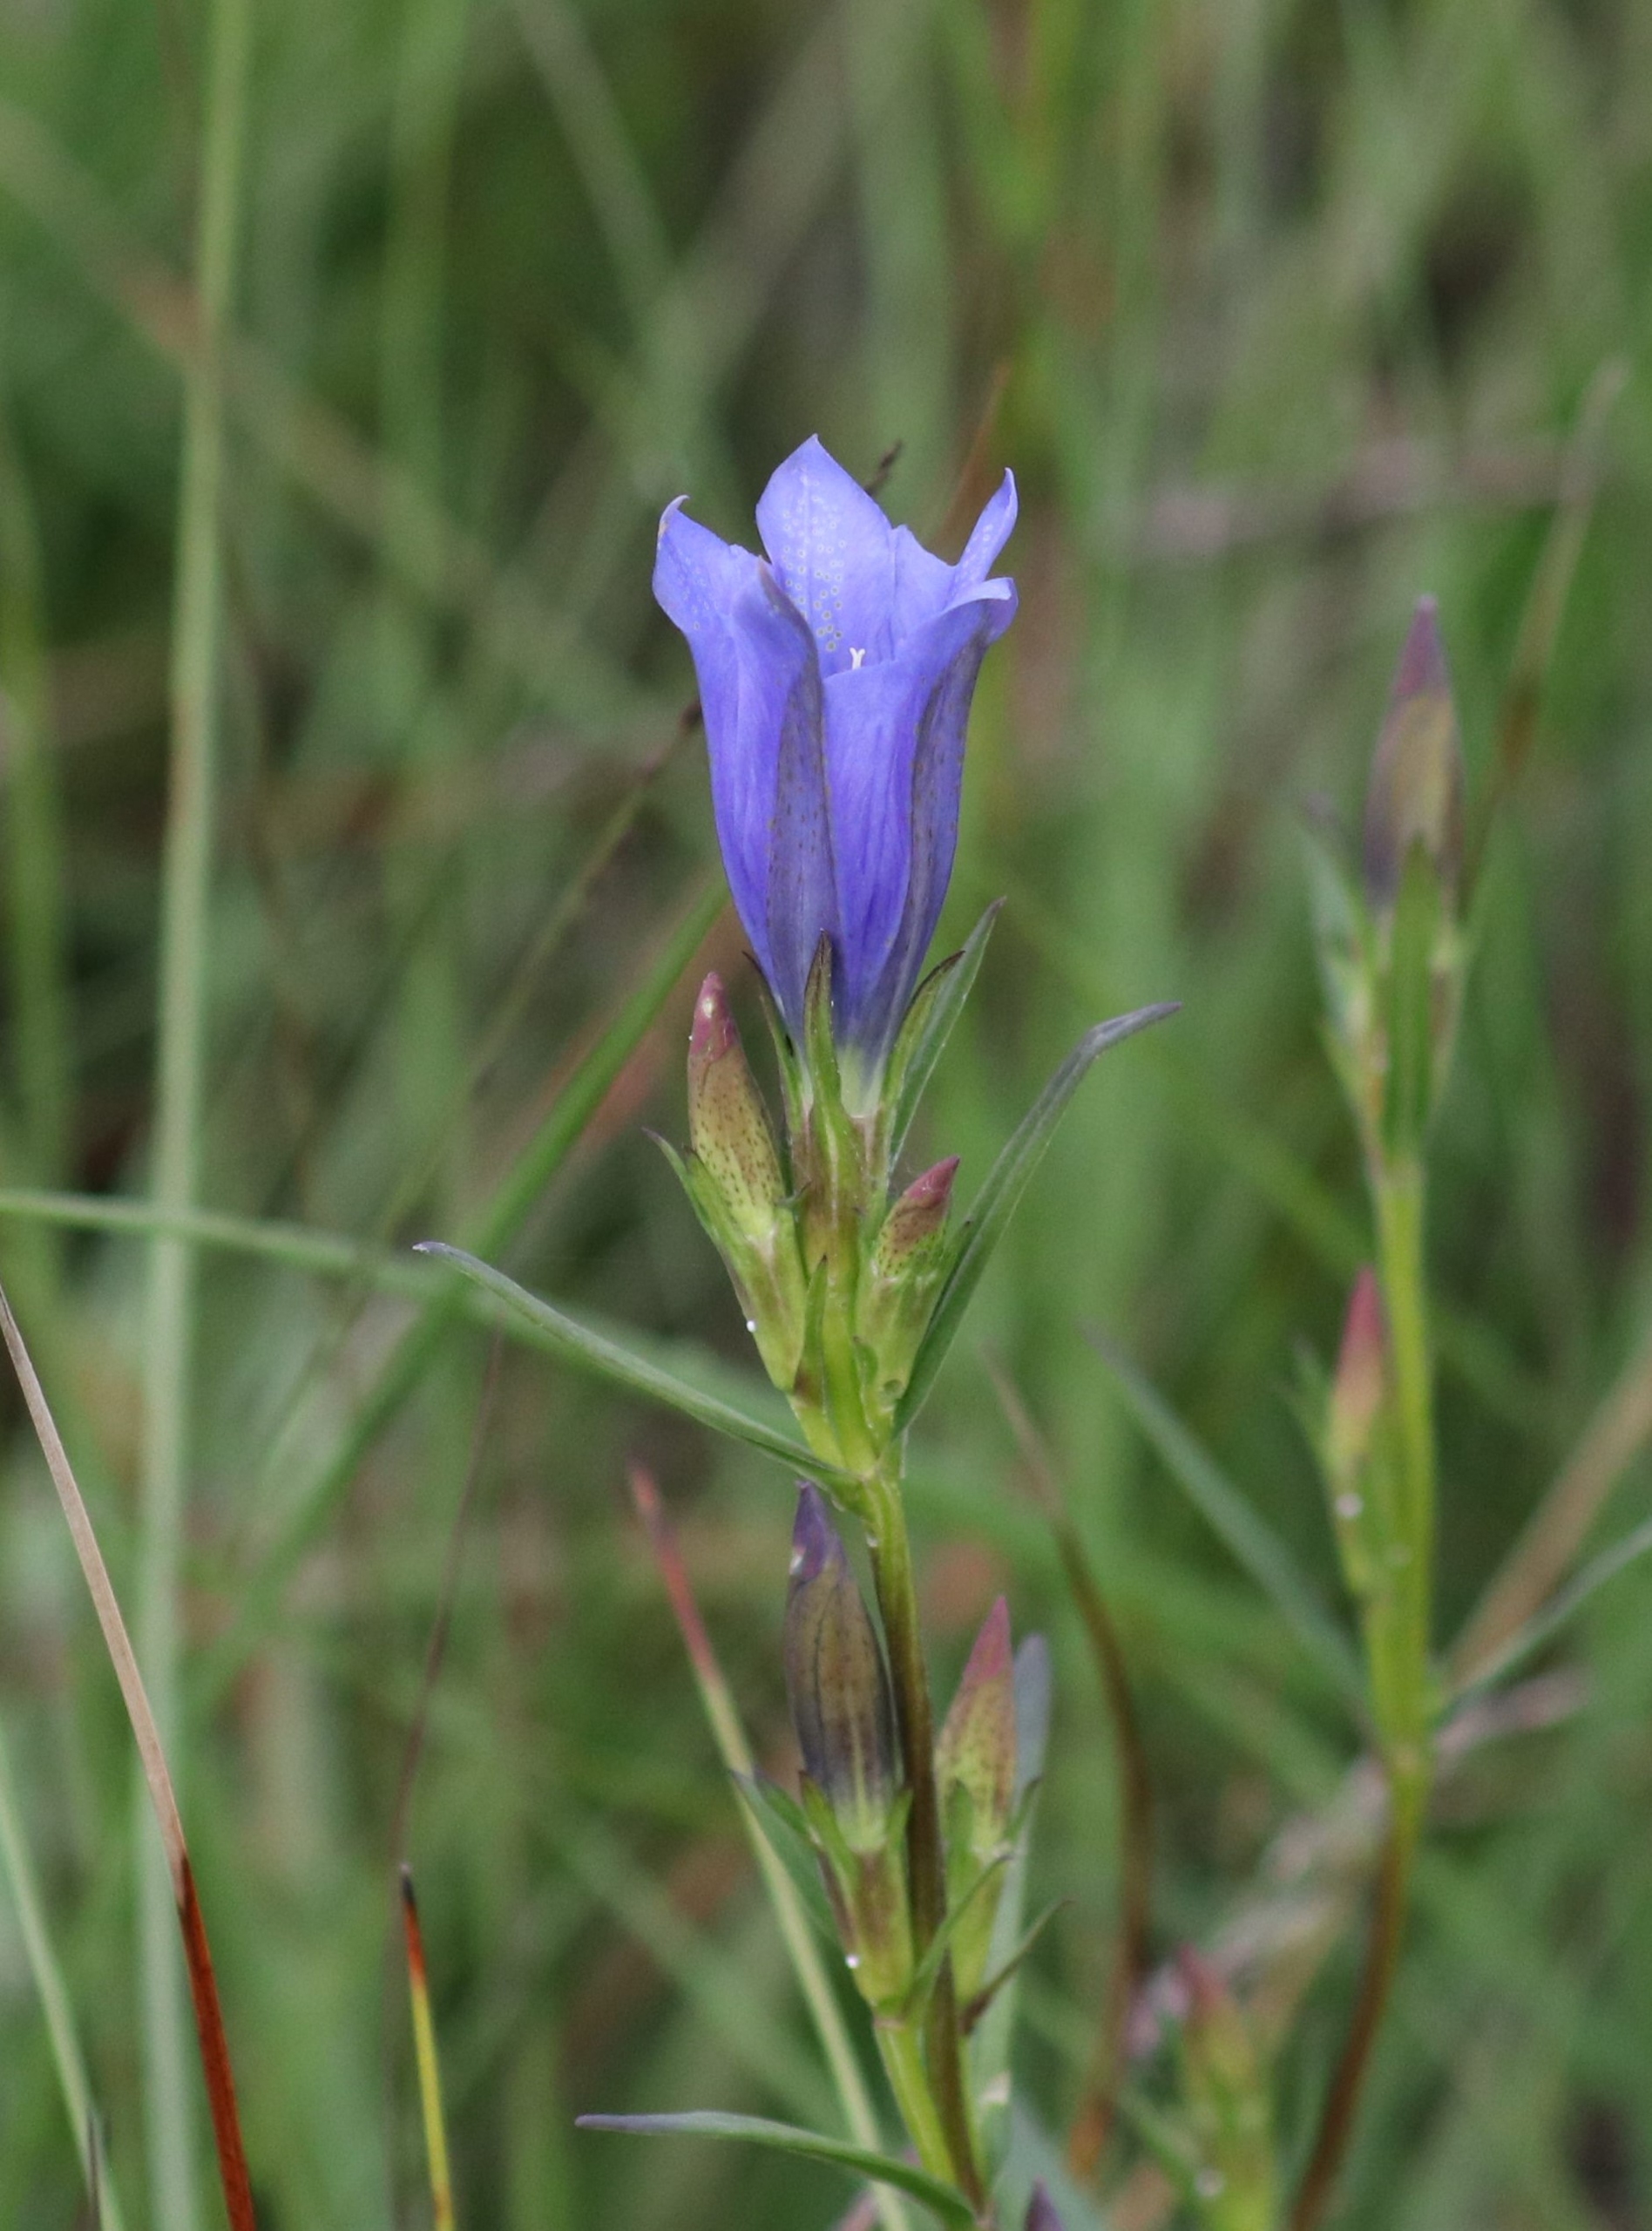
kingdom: Plantae
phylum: Tracheophyta
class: Magnoliopsida
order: Gentianales
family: Gentianaceae
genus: Gentiana
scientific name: Gentiana pneumonanthe
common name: Klokke-ensian
